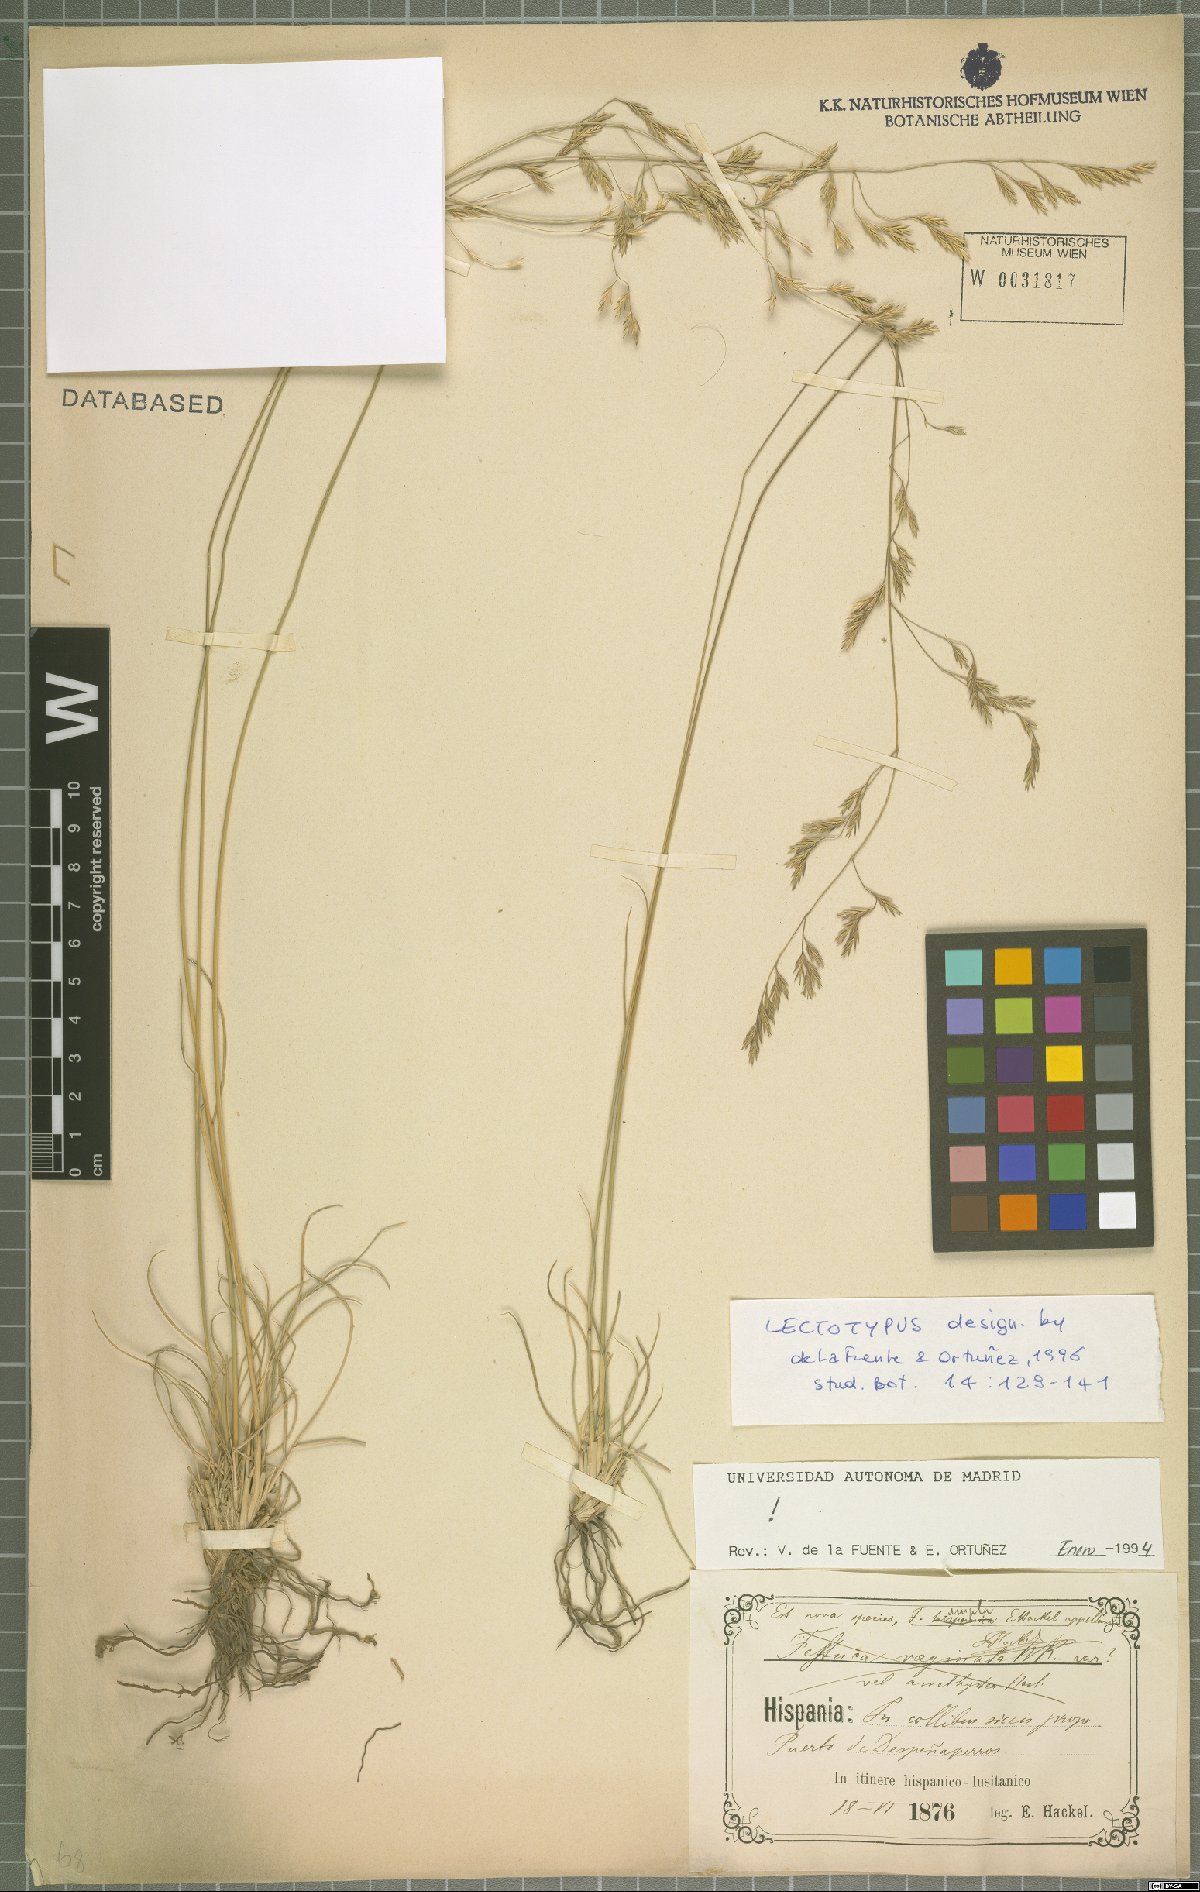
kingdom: Plantae
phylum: Tracheophyta
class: Liliopsida
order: Poales
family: Poaceae
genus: Festuca
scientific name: Festuca ampla
